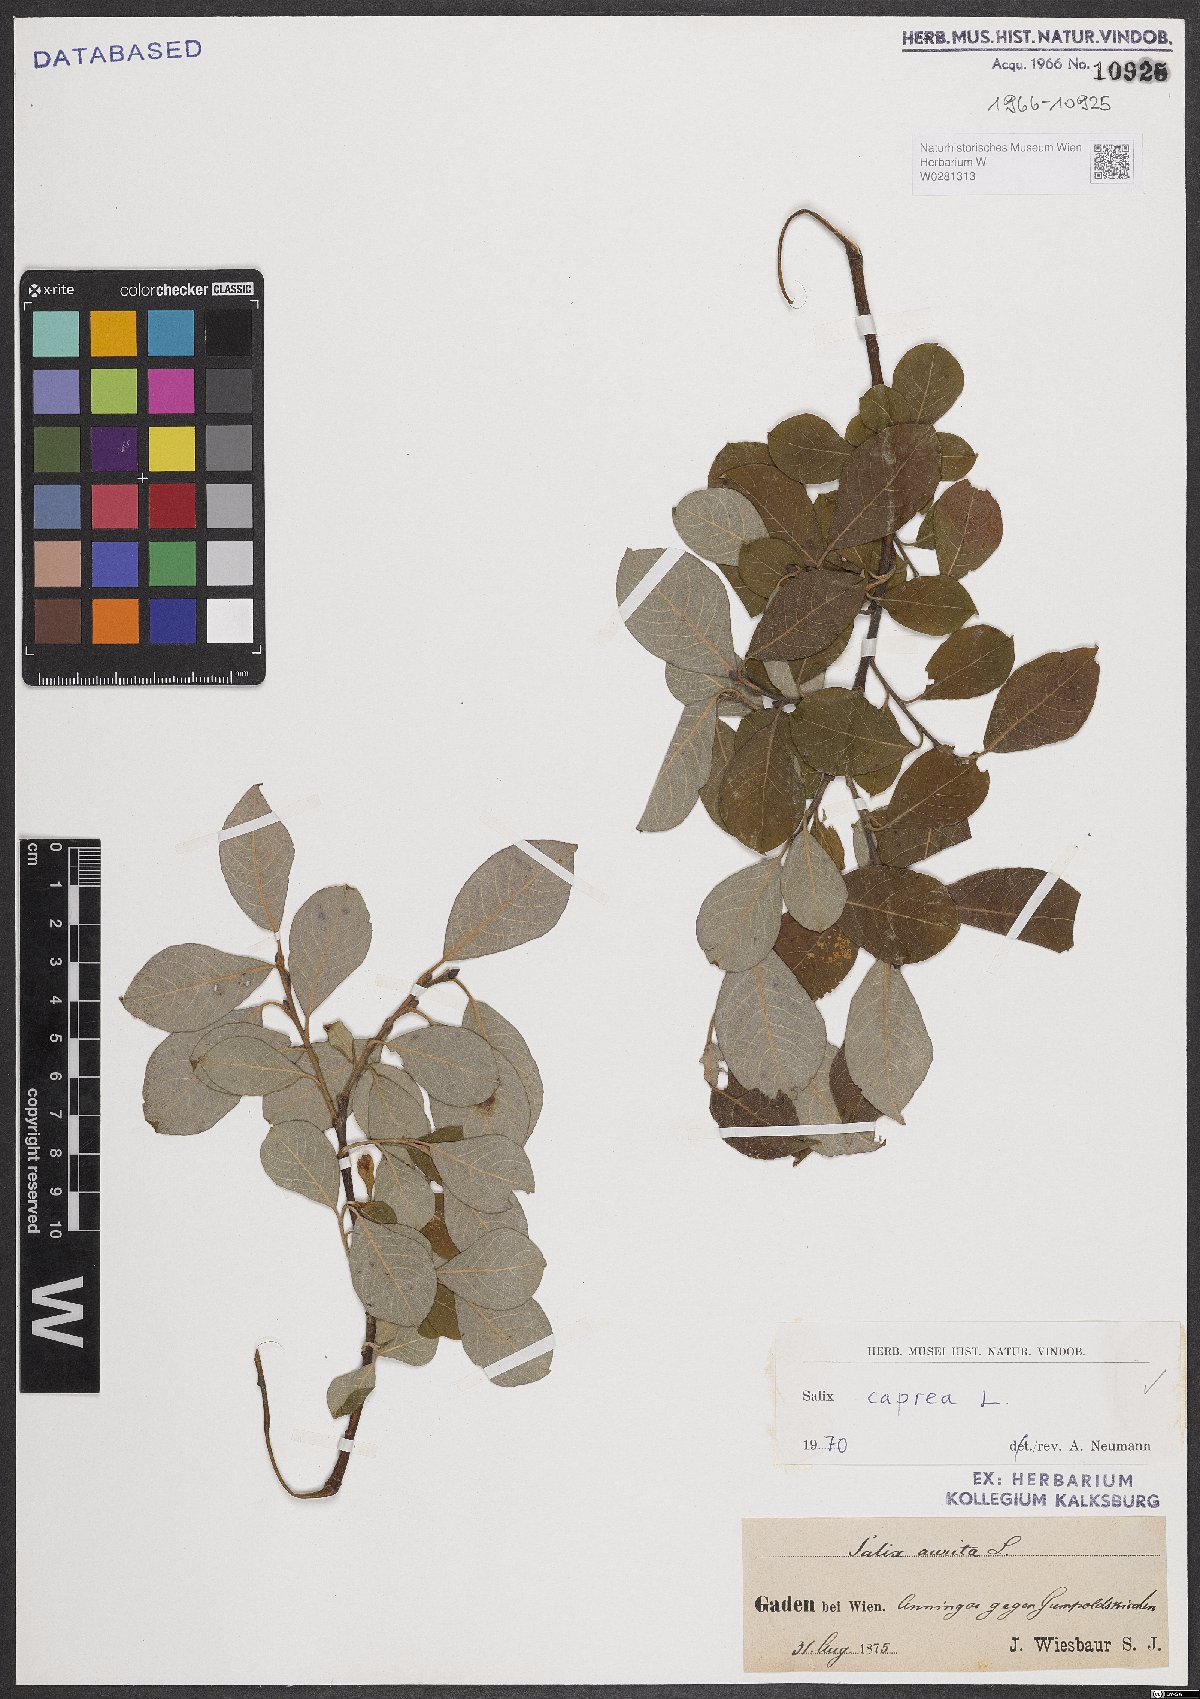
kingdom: Plantae
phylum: Tracheophyta
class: Magnoliopsida
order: Malpighiales
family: Salicaceae
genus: Salix
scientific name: Salix caprea
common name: Goat willow
